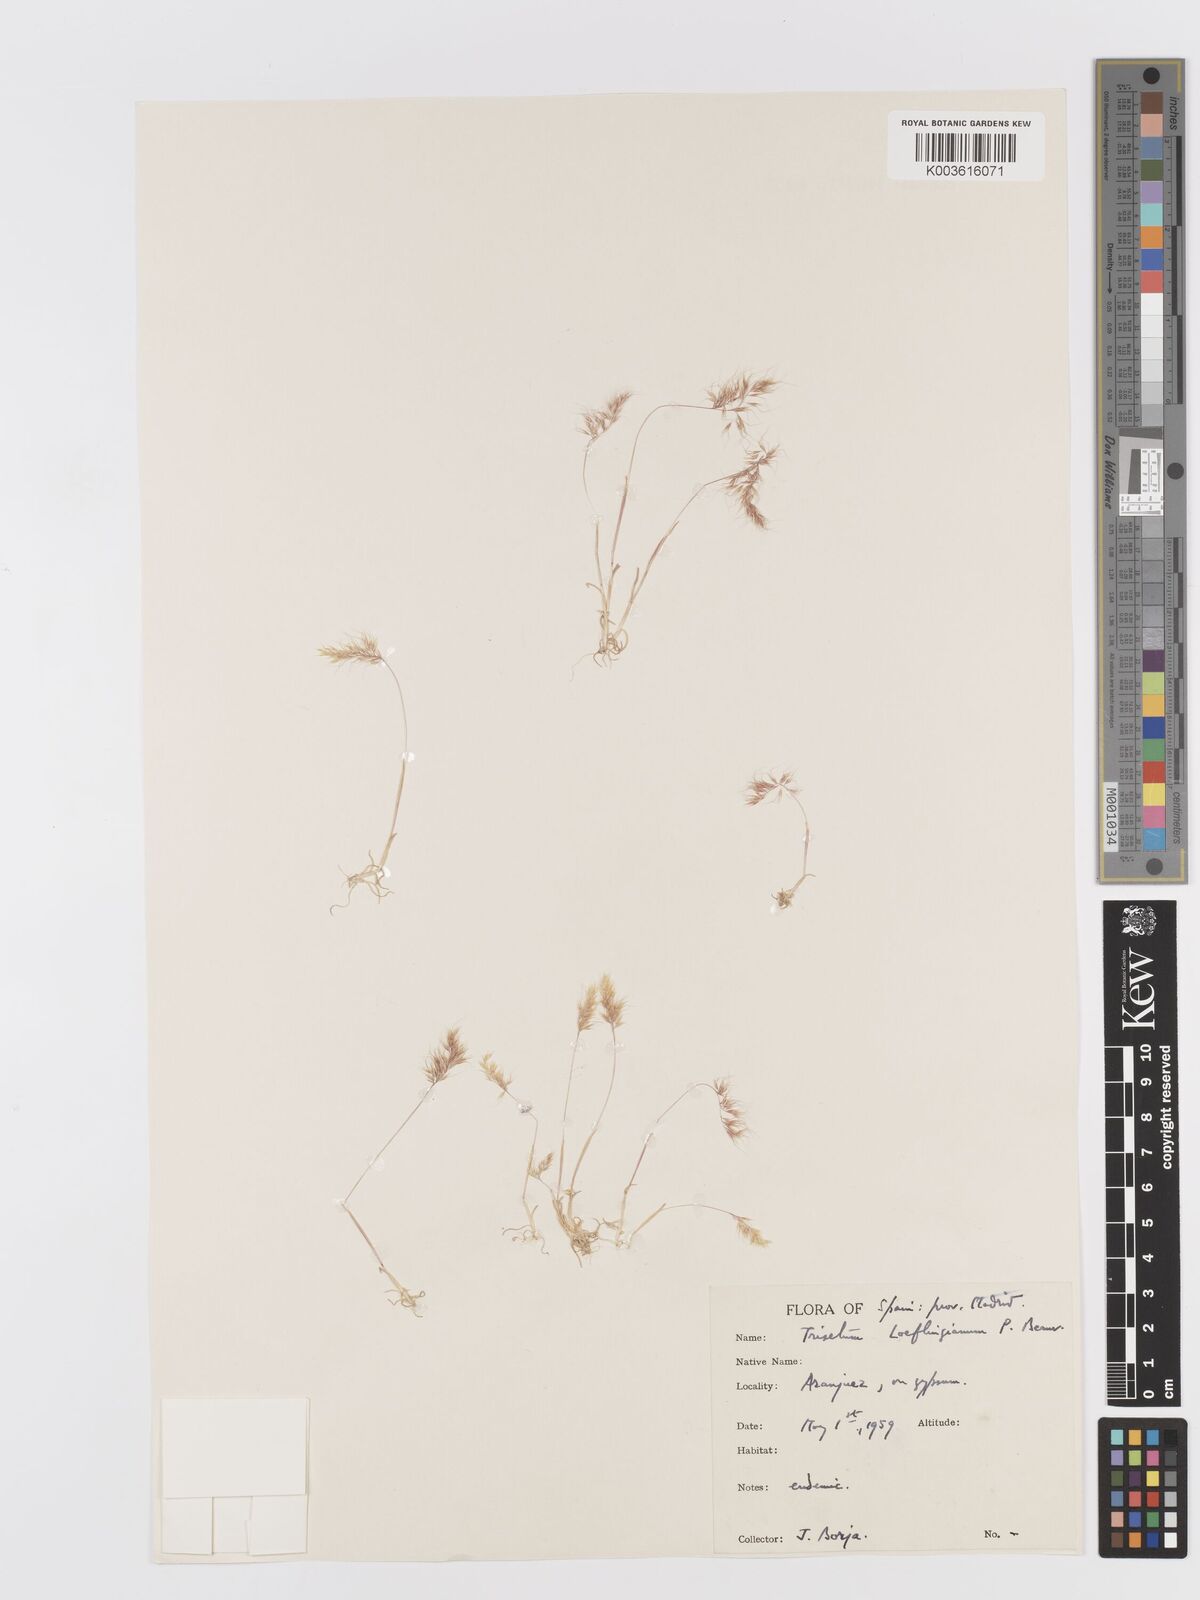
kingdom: Plantae
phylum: Tracheophyta
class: Liliopsida
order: Poales
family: Poaceae
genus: Trisetaria
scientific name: Trisetaria loeflingiana
